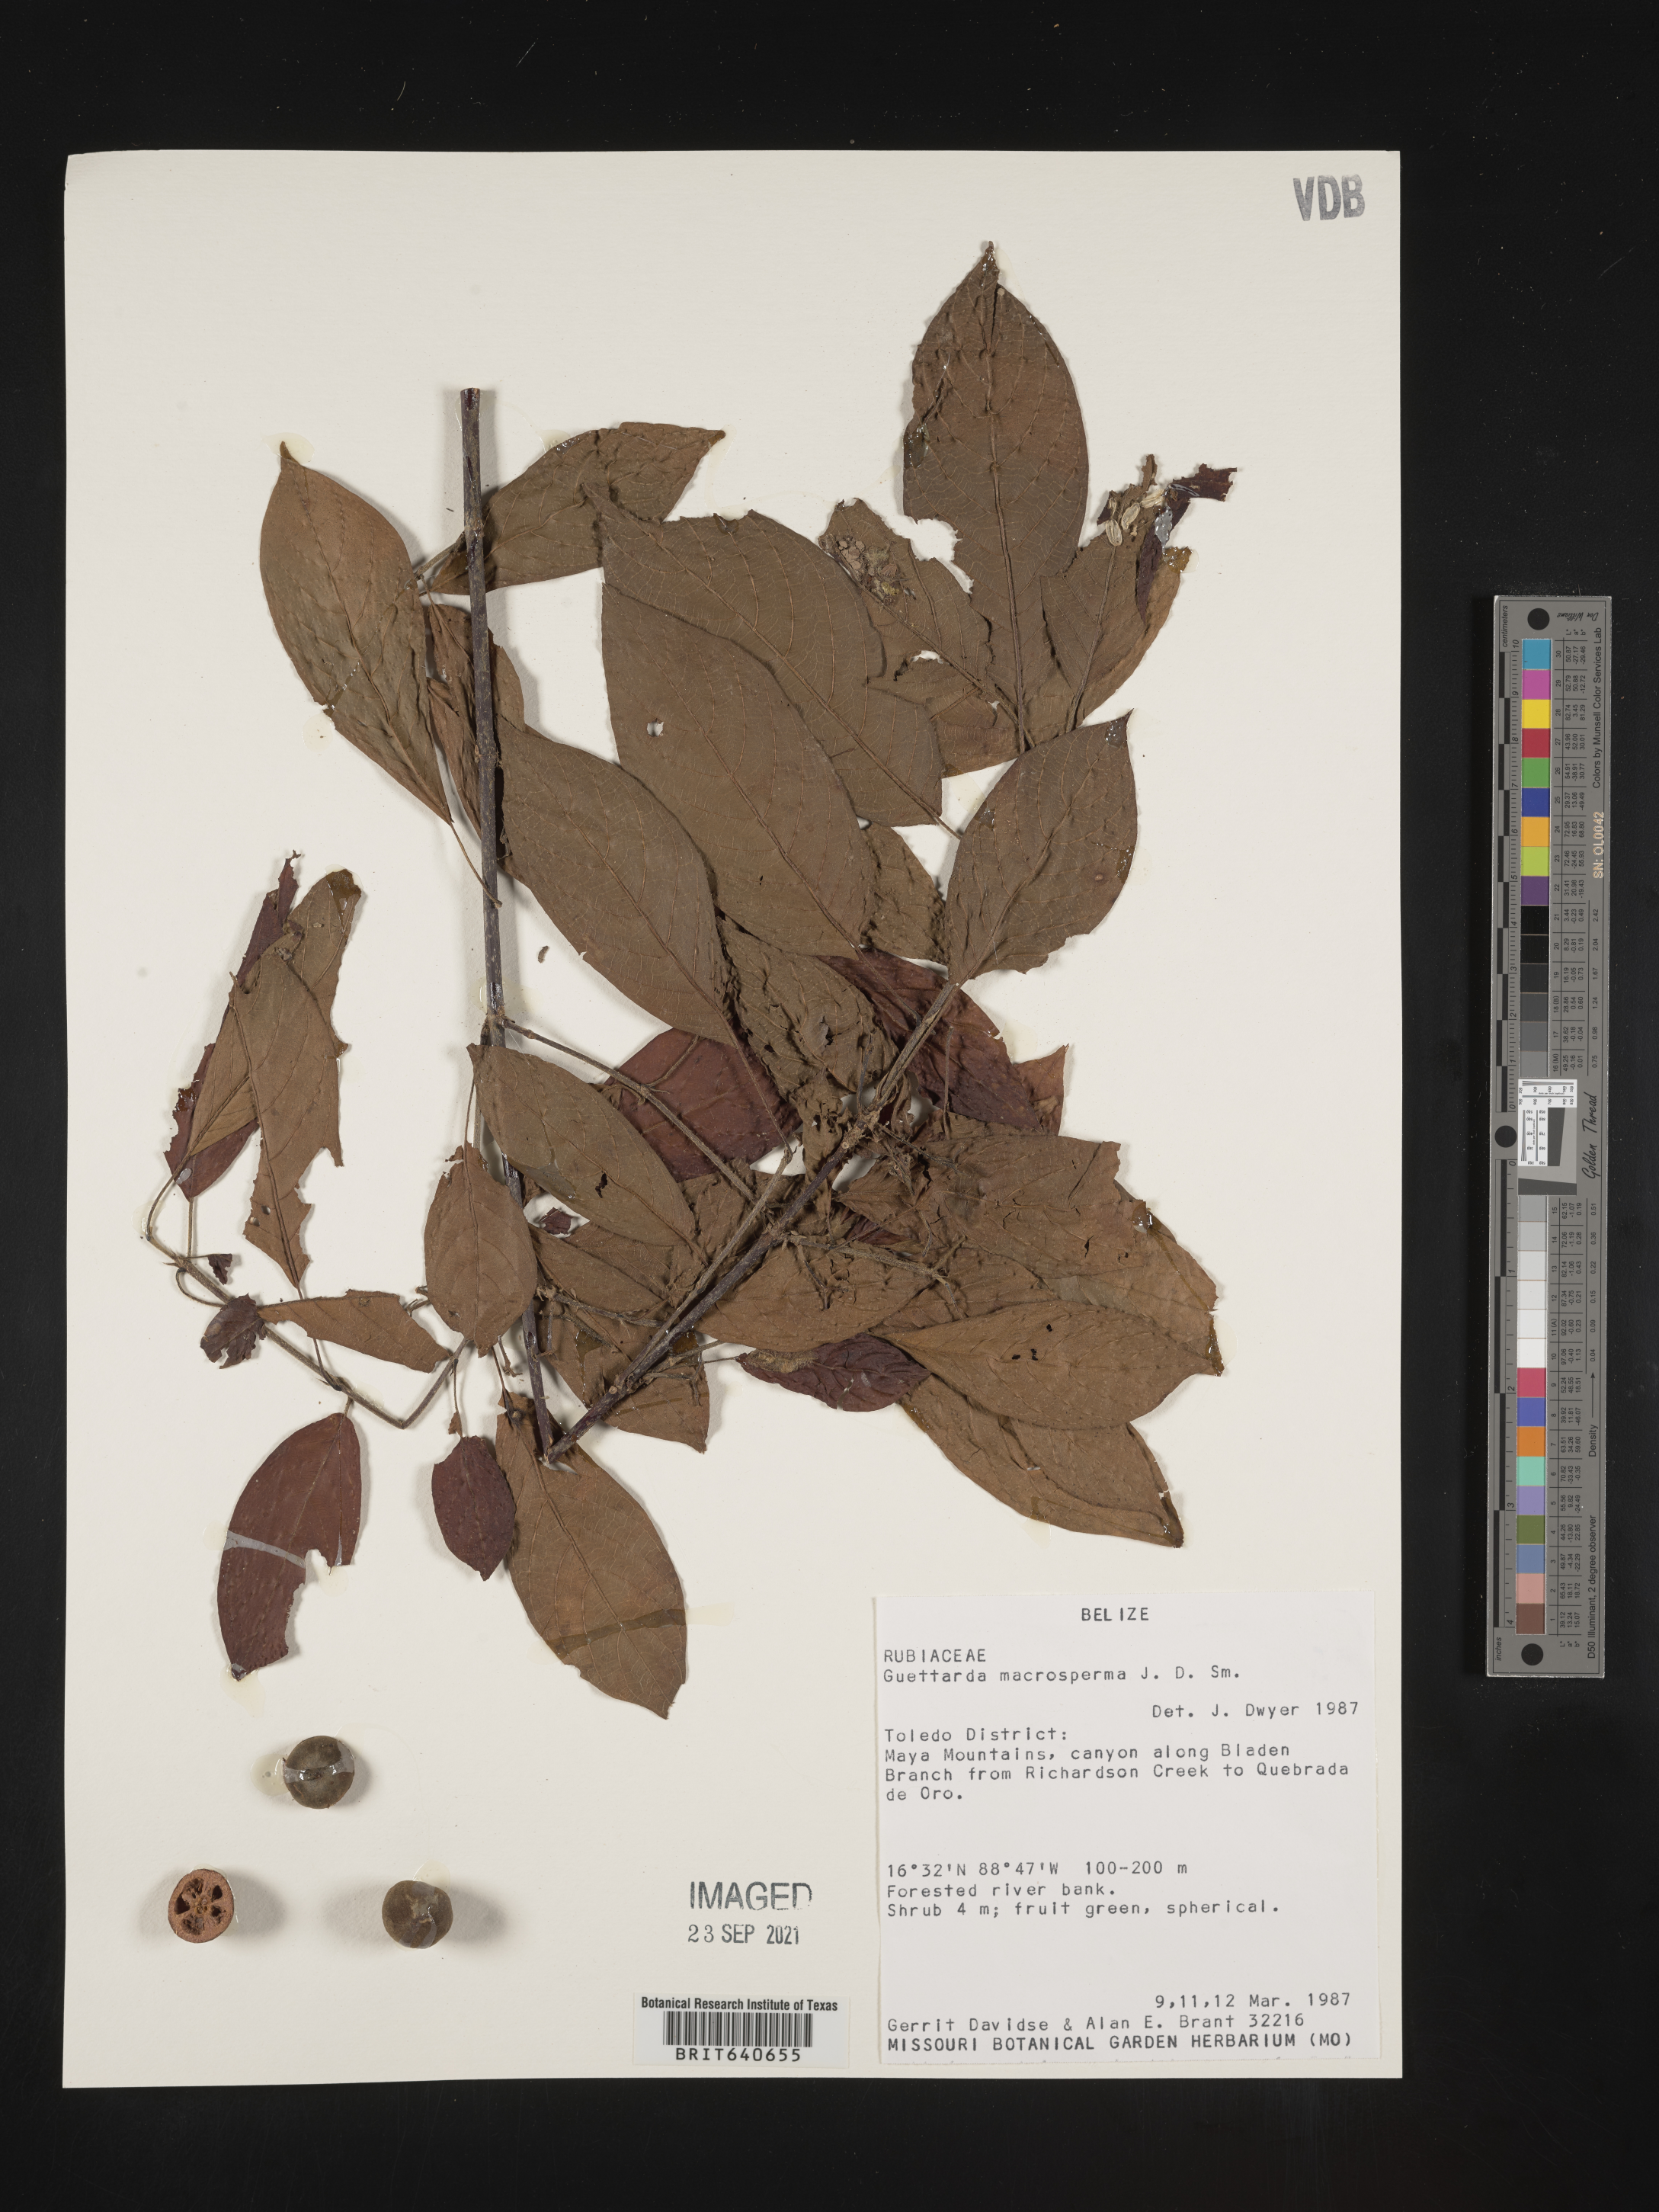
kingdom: Plantae
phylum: Tracheophyta
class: Magnoliopsida
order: Gentianales
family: Rubiaceae
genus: Guettarda
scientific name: Guettarda
